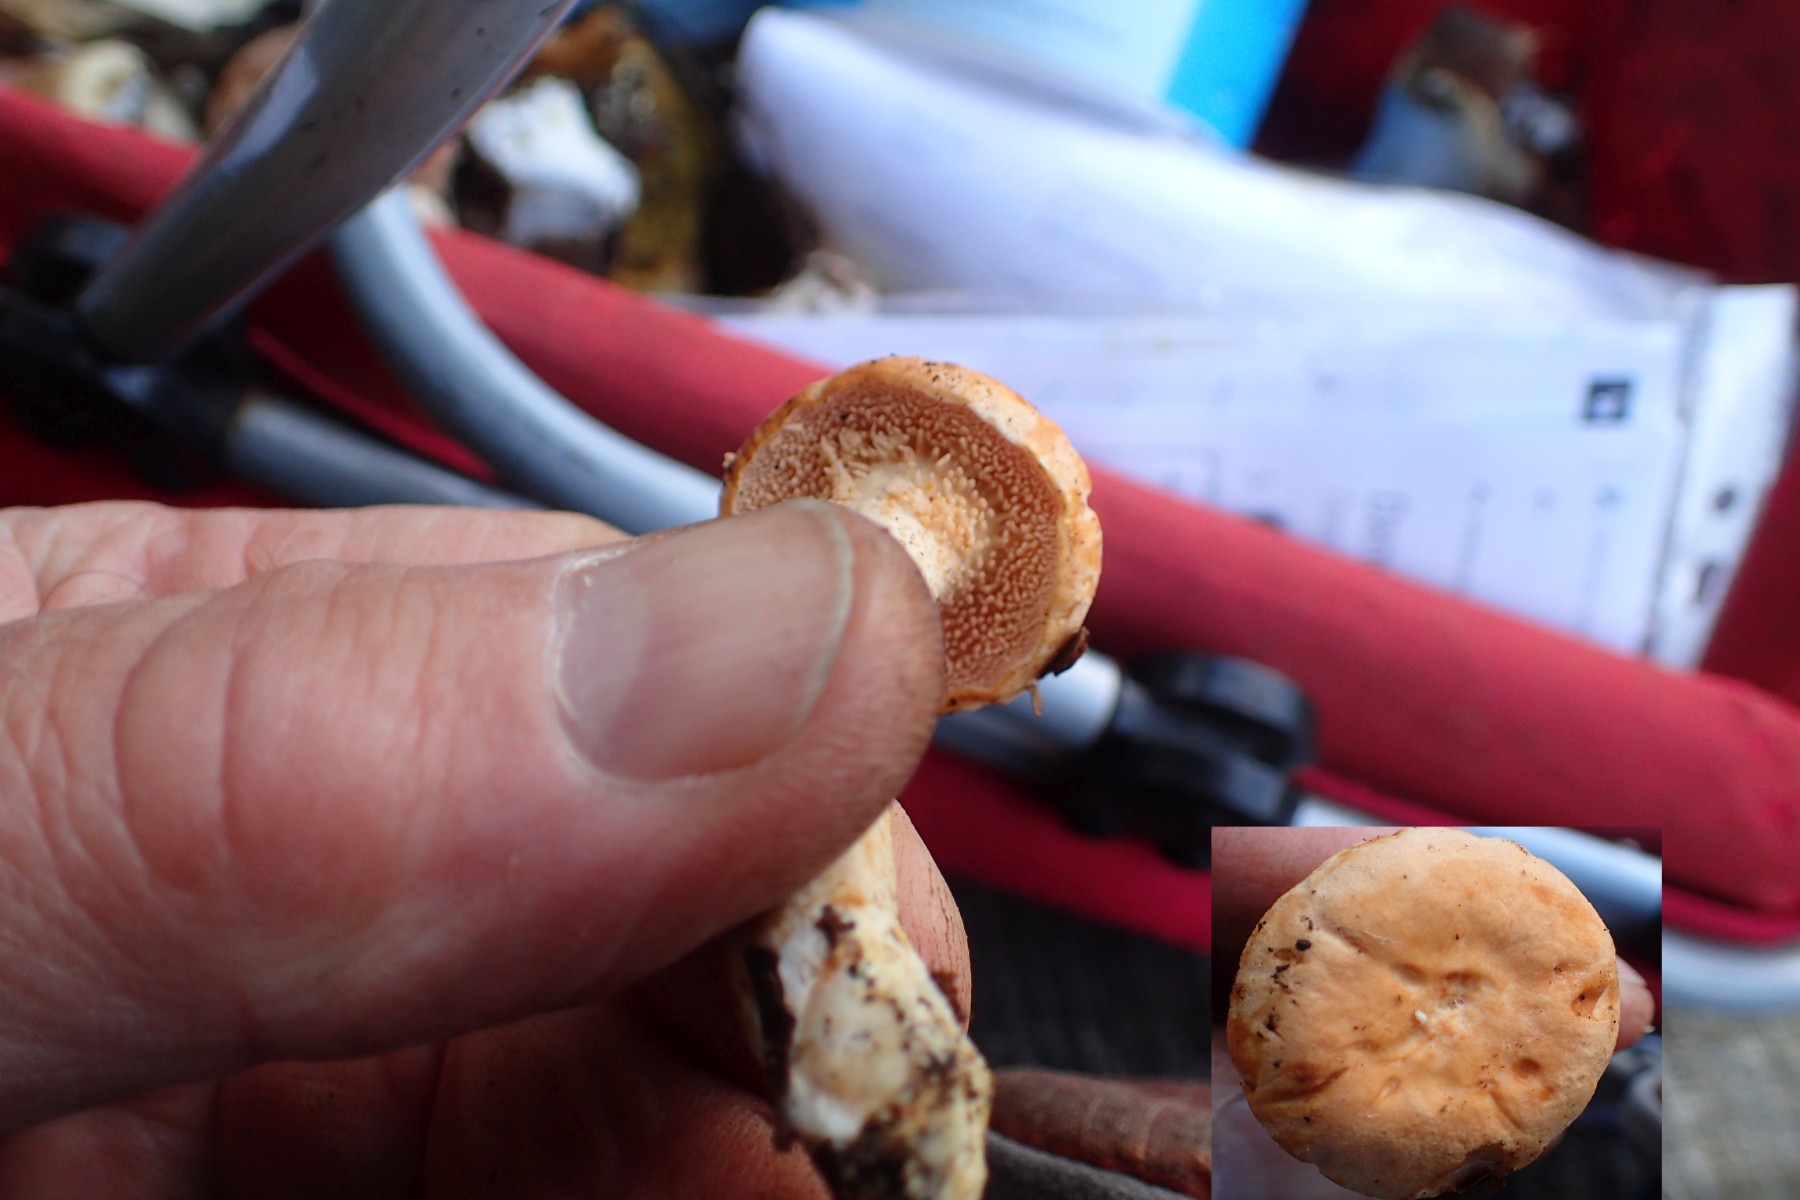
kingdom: Fungi
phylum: Basidiomycota
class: Agaricomycetes
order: Cantharellales
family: Hydnaceae
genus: Hydnum
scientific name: Hydnum rufescens
